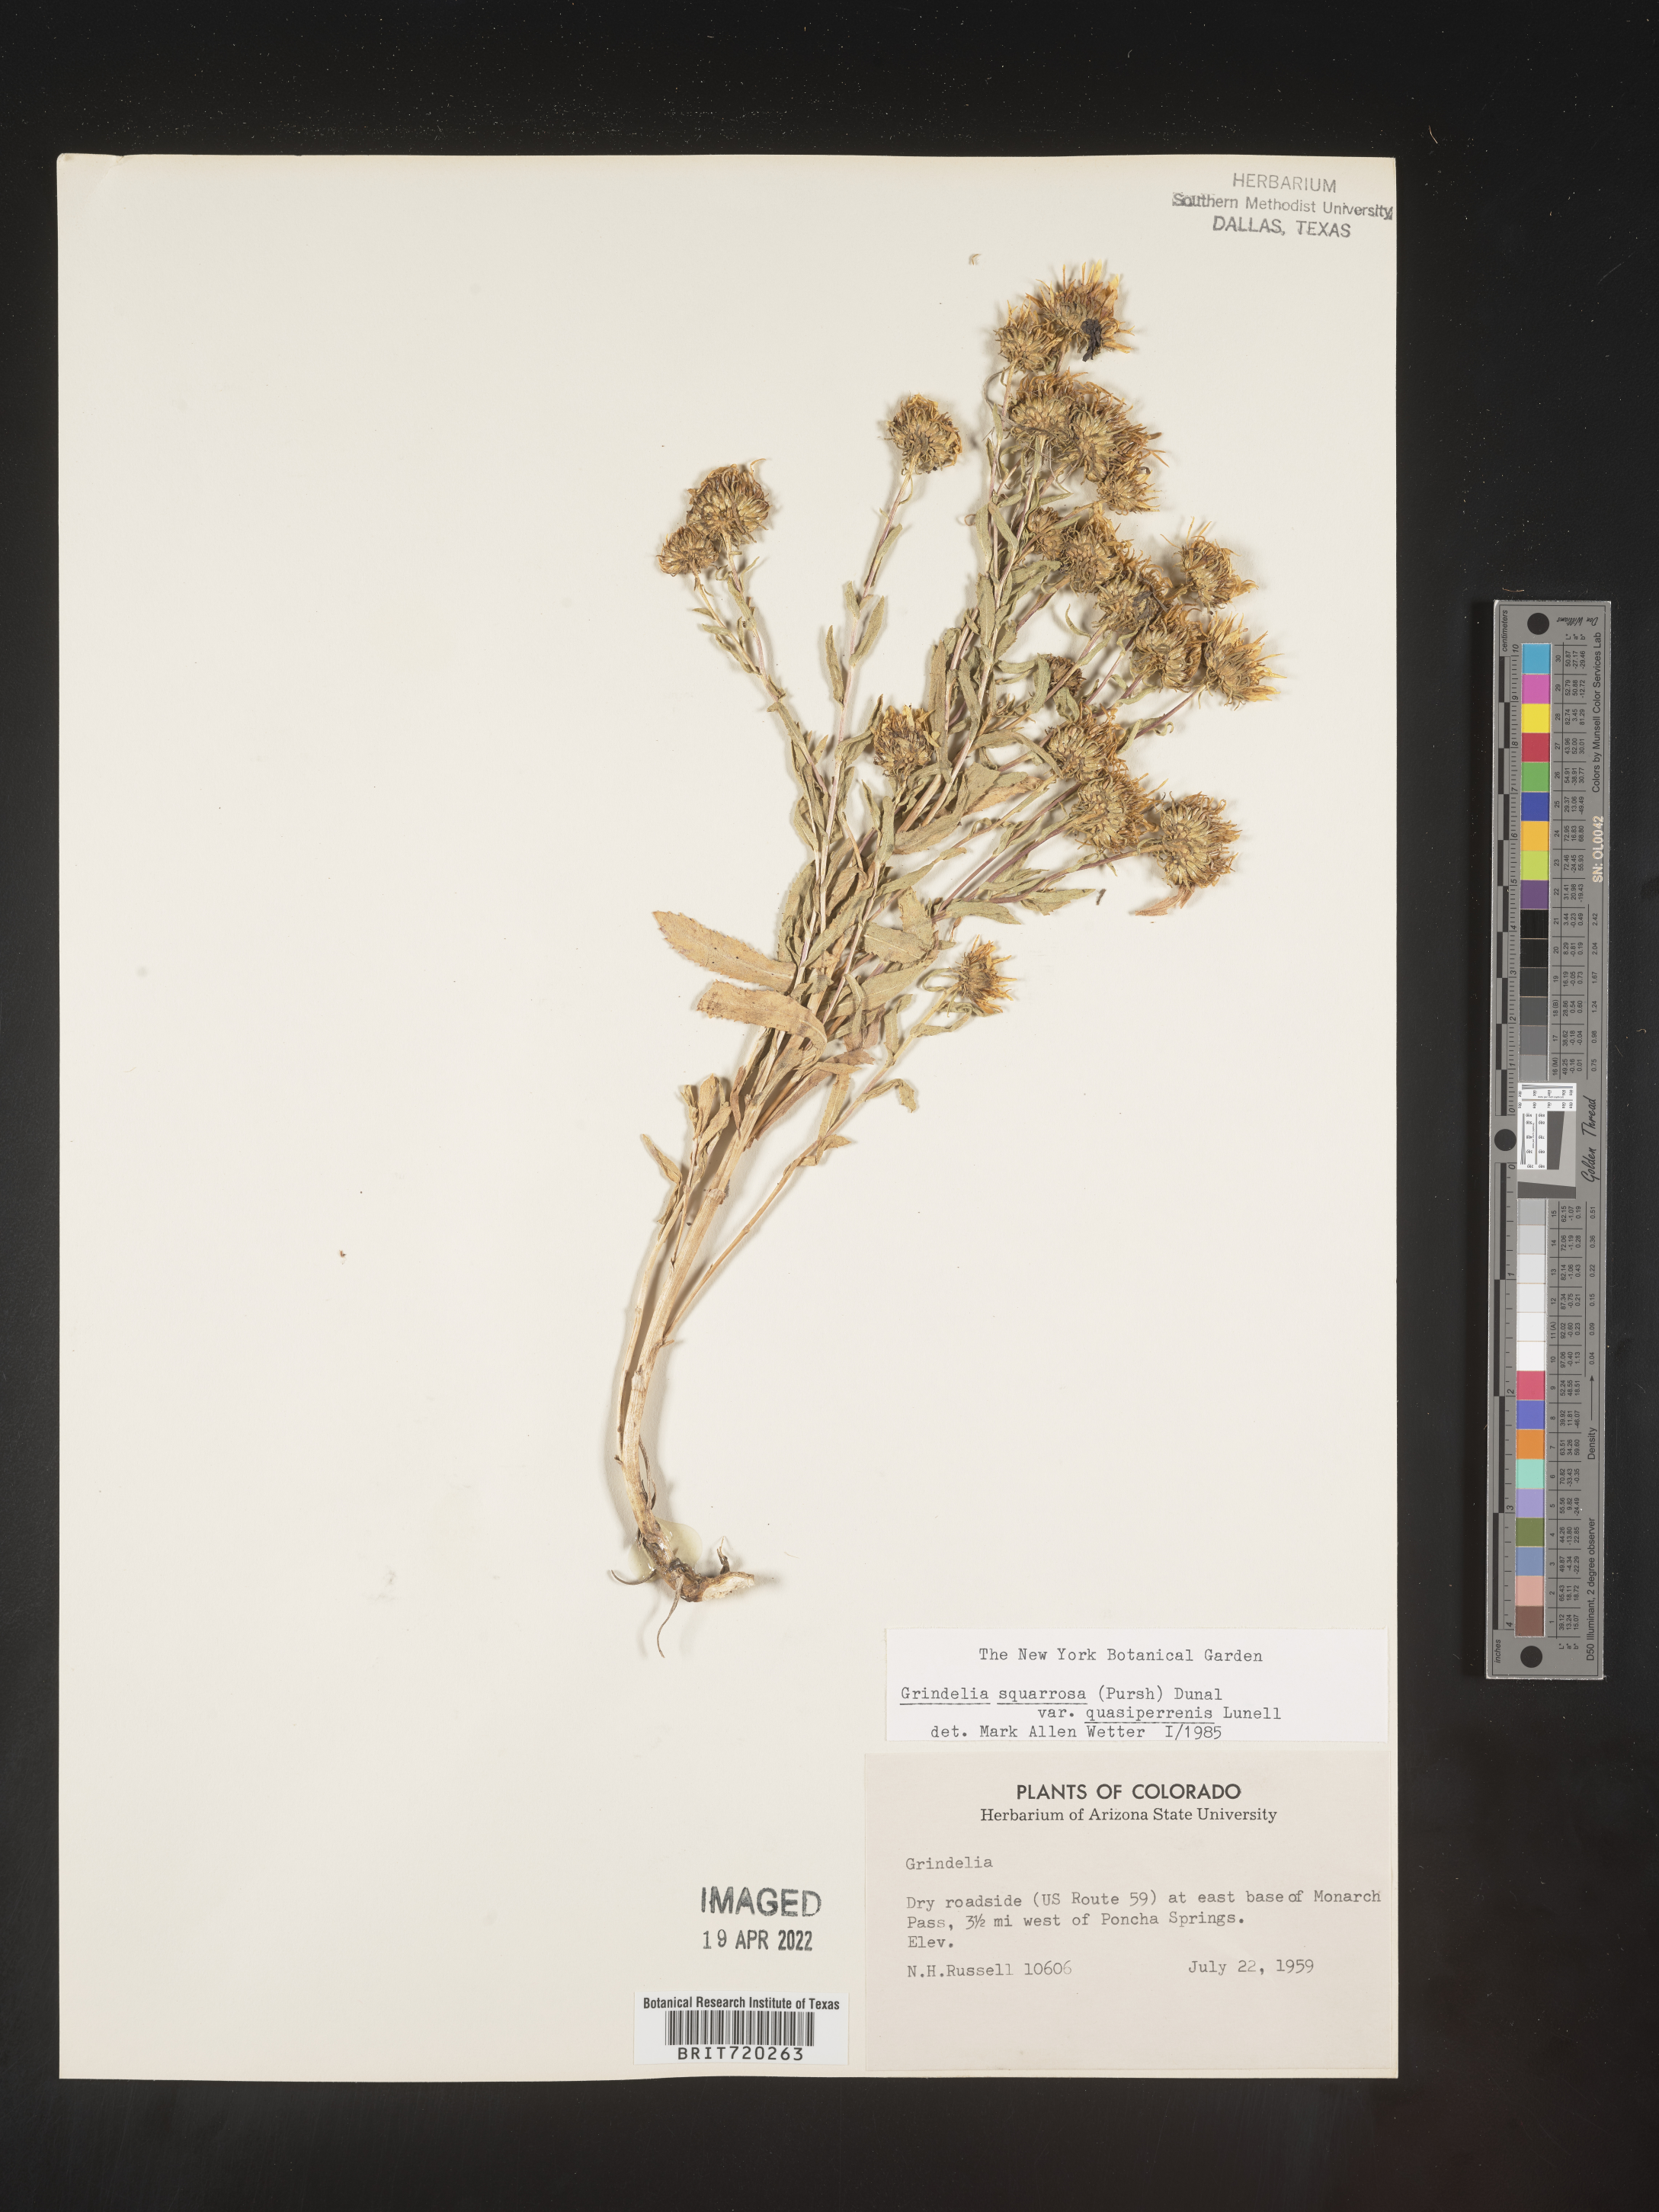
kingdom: Plantae
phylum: Tracheophyta
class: Magnoliopsida
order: Asterales
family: Asteraceae
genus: Grindelia
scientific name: Grindelia squarrosa
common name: Curly-cup gumweed
